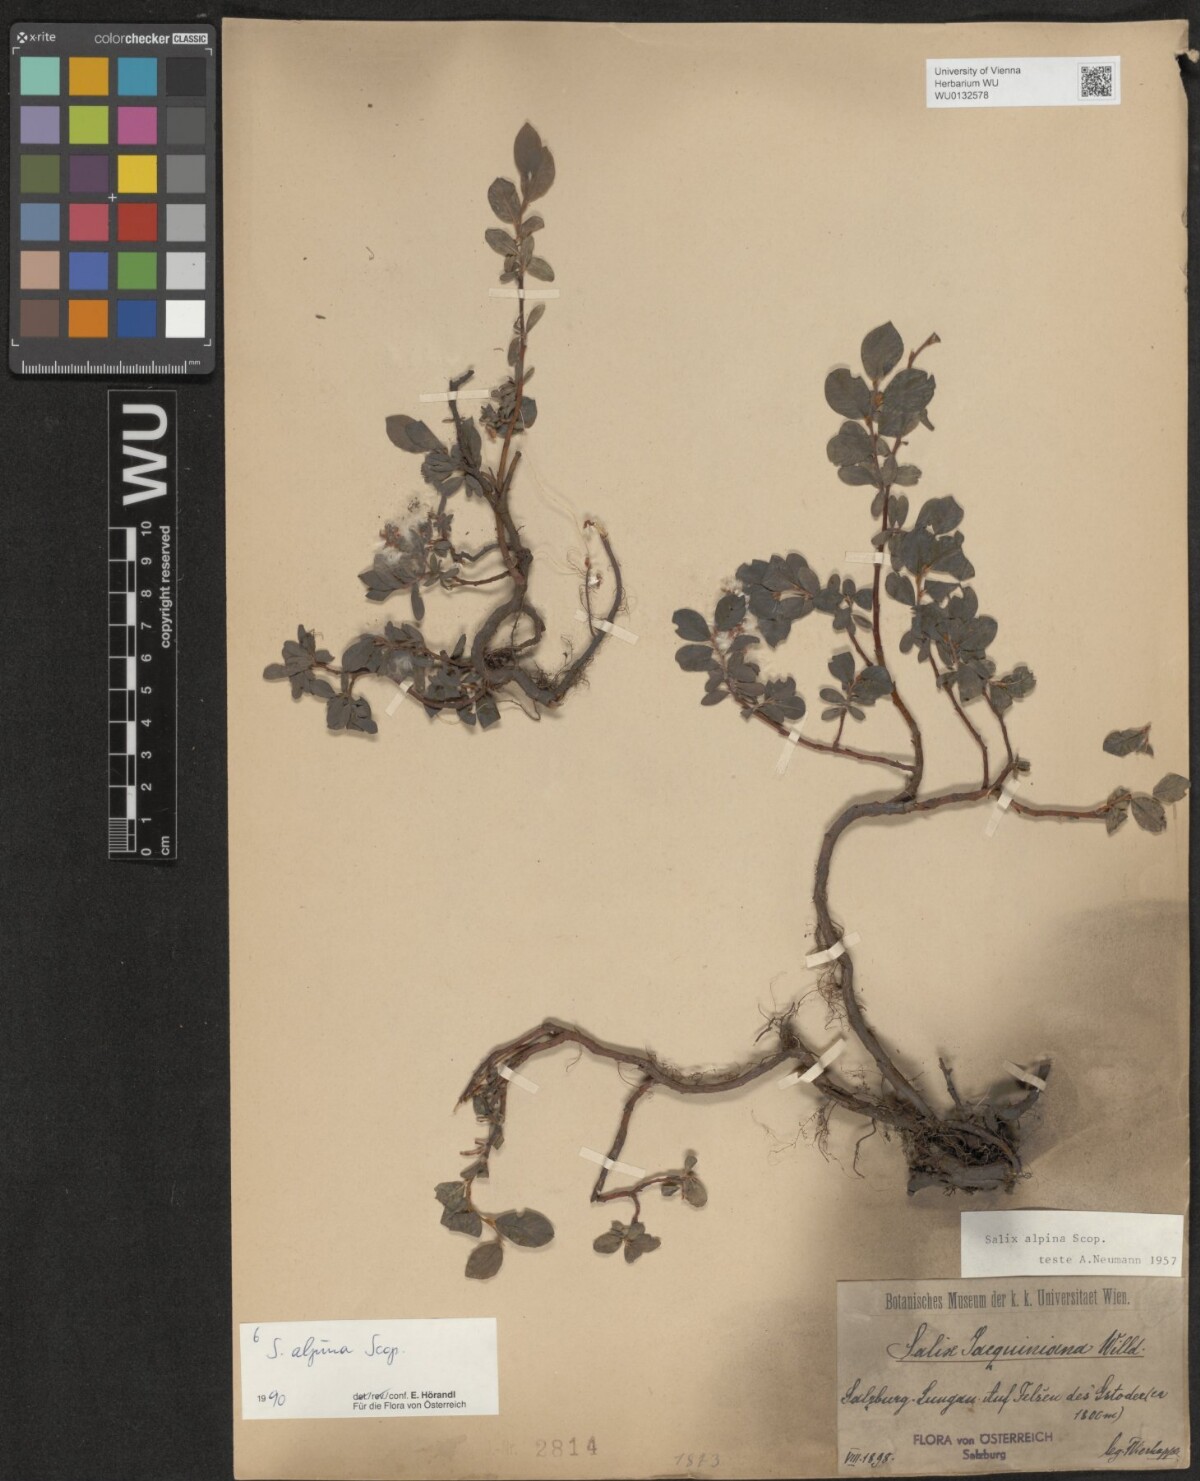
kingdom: Plantae
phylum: Tracheophyta
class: Magnoliopsida
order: Malpighiales
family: Salicaceae
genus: Salix
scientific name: Salix alpina
